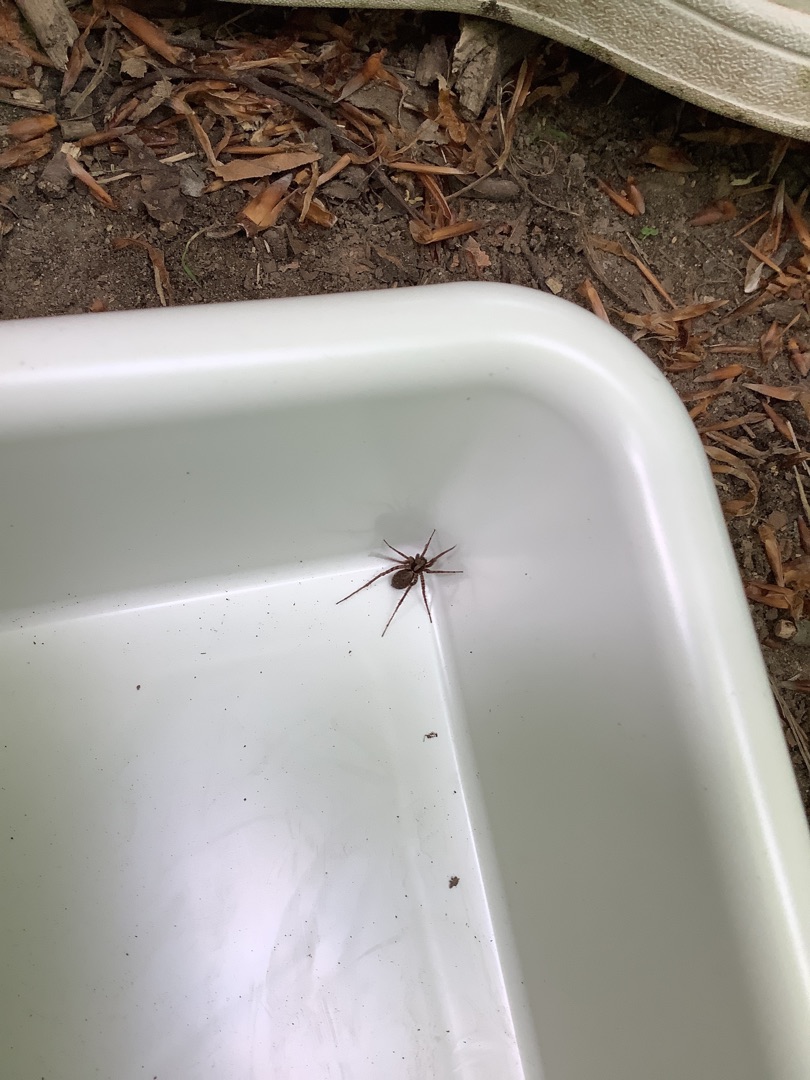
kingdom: Animalia
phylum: Arthropoda
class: Arachnida
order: Araneae
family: Lycosidae
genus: Pardosa
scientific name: Pardosa
